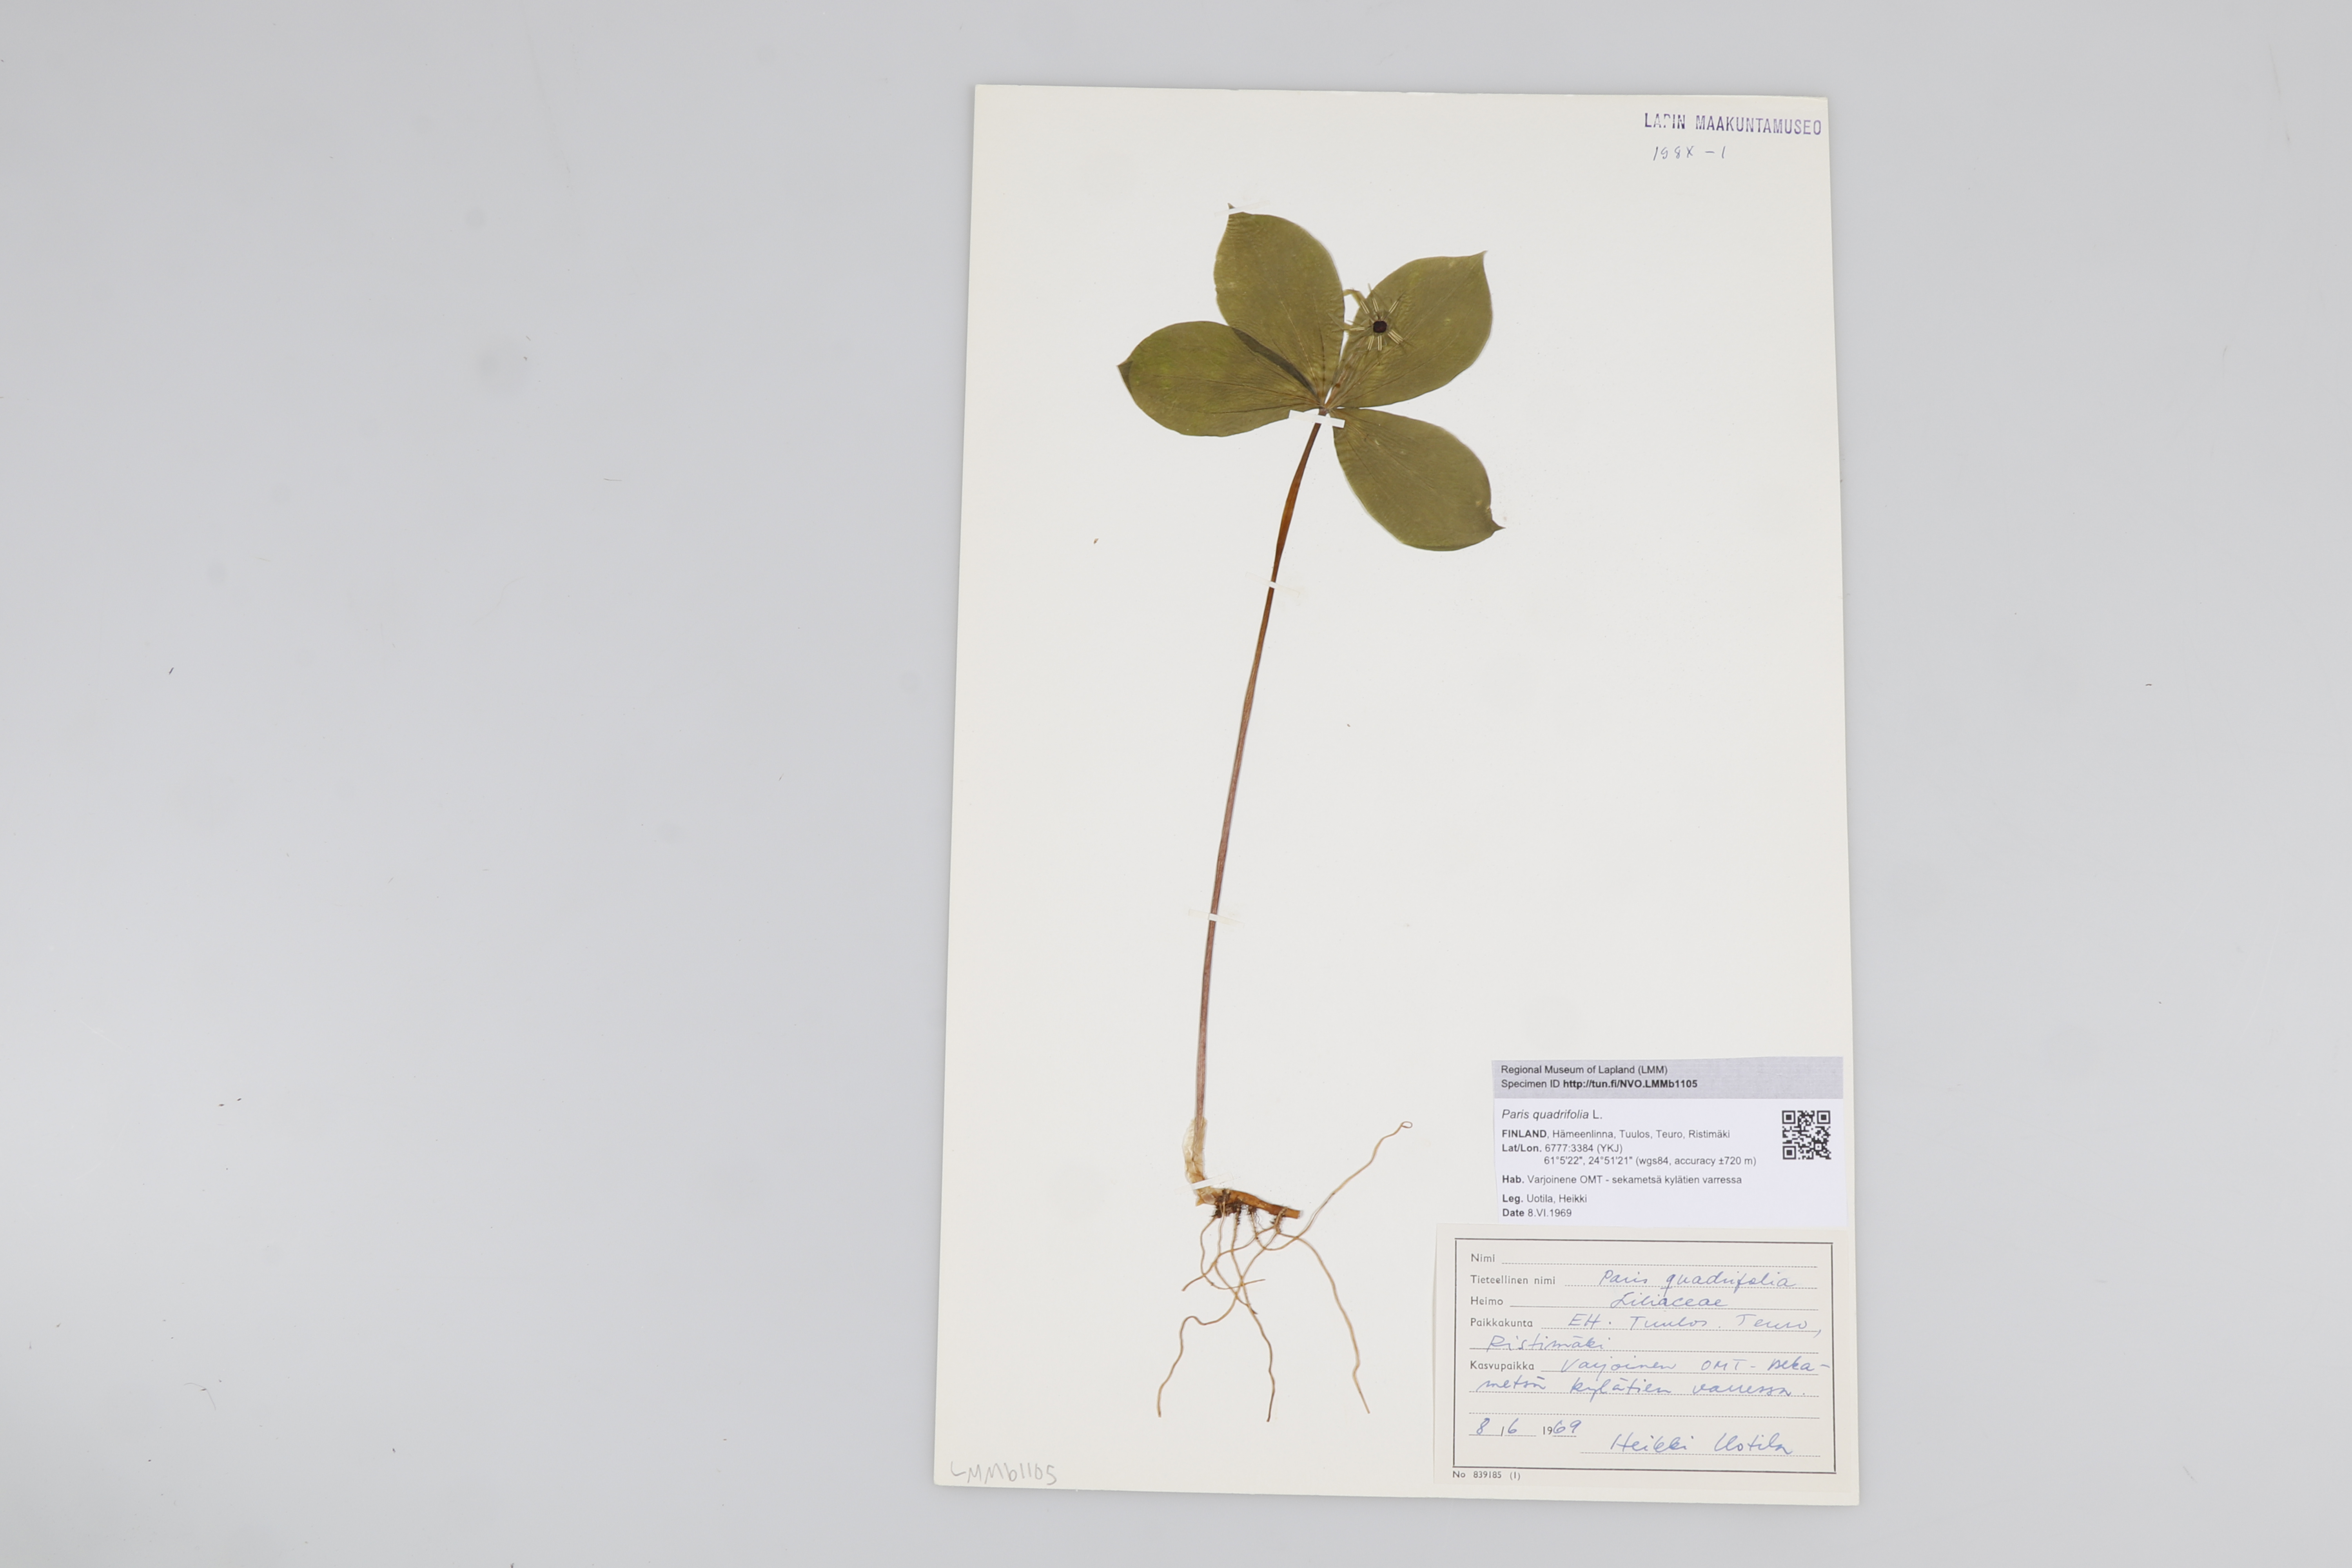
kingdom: Plantae
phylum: Tracheophyta
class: Liliopsida
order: Liliales
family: Melanthiaceae
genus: Paris
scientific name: Paris quadrifolia
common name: Herb-paris
